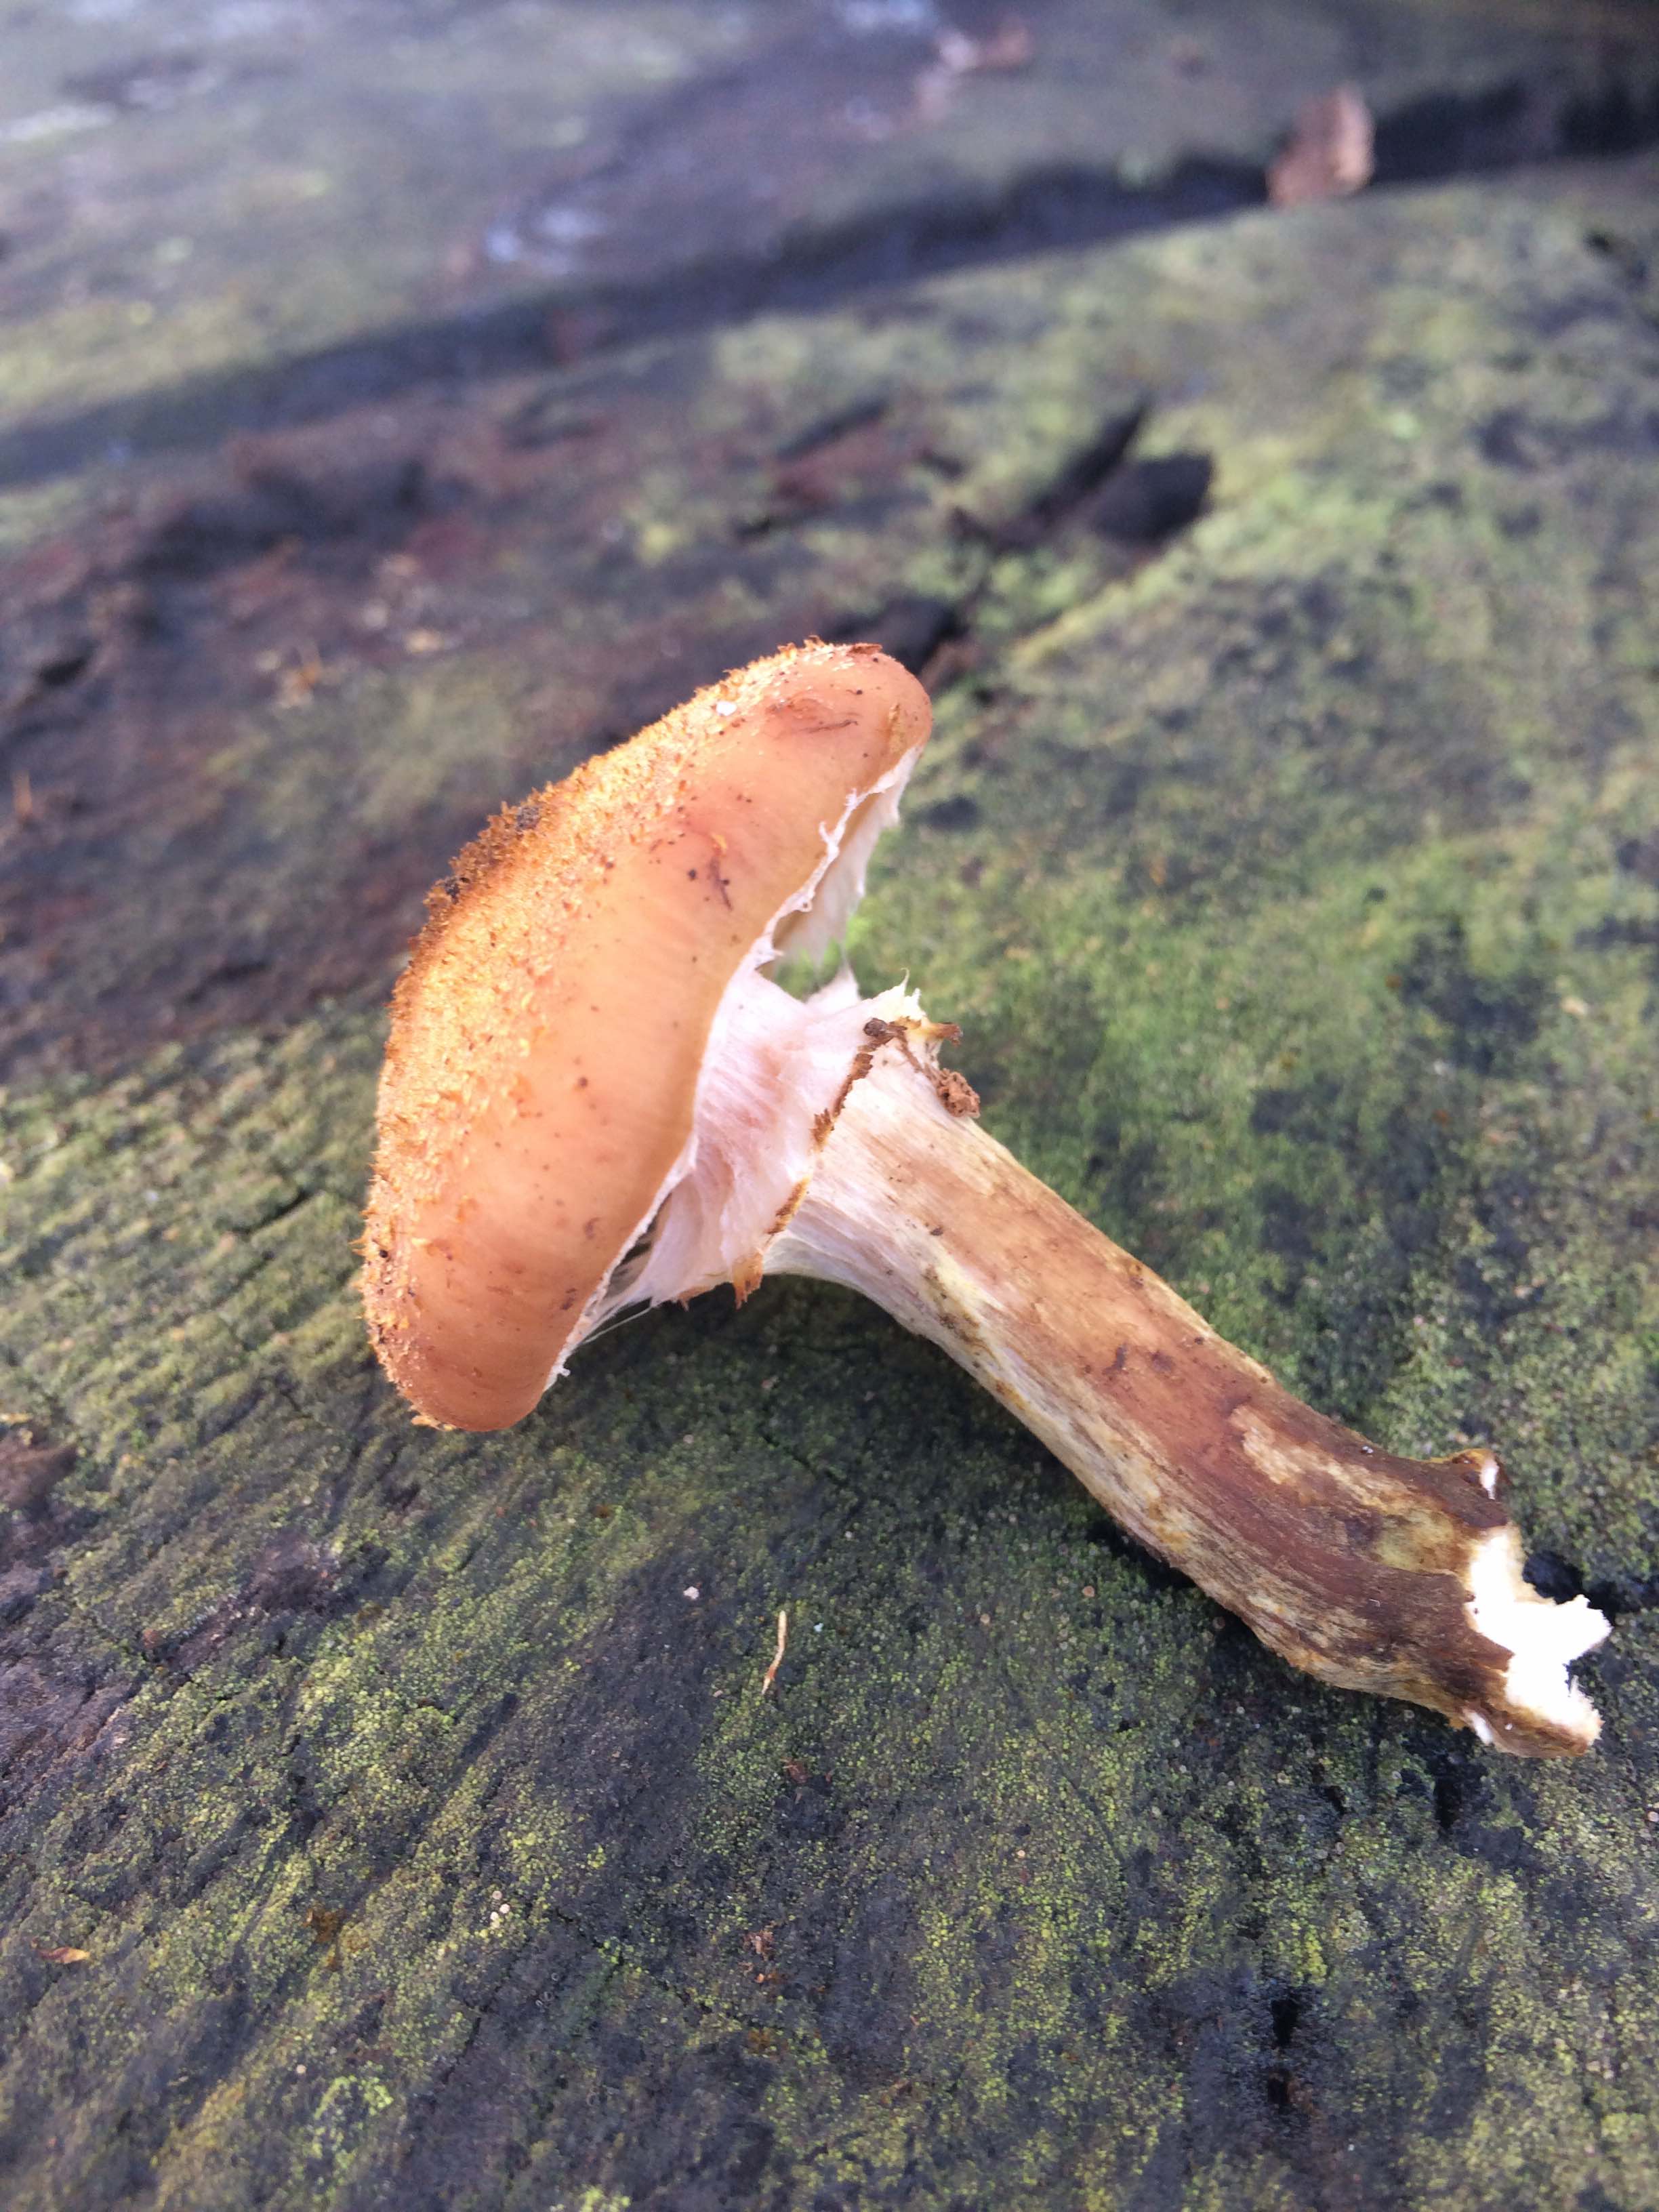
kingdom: Fungi
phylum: Basidiomycota
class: Agaricomycetes
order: Agaricales
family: Physalacriaceae
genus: Armillaria
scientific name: Armillaria
